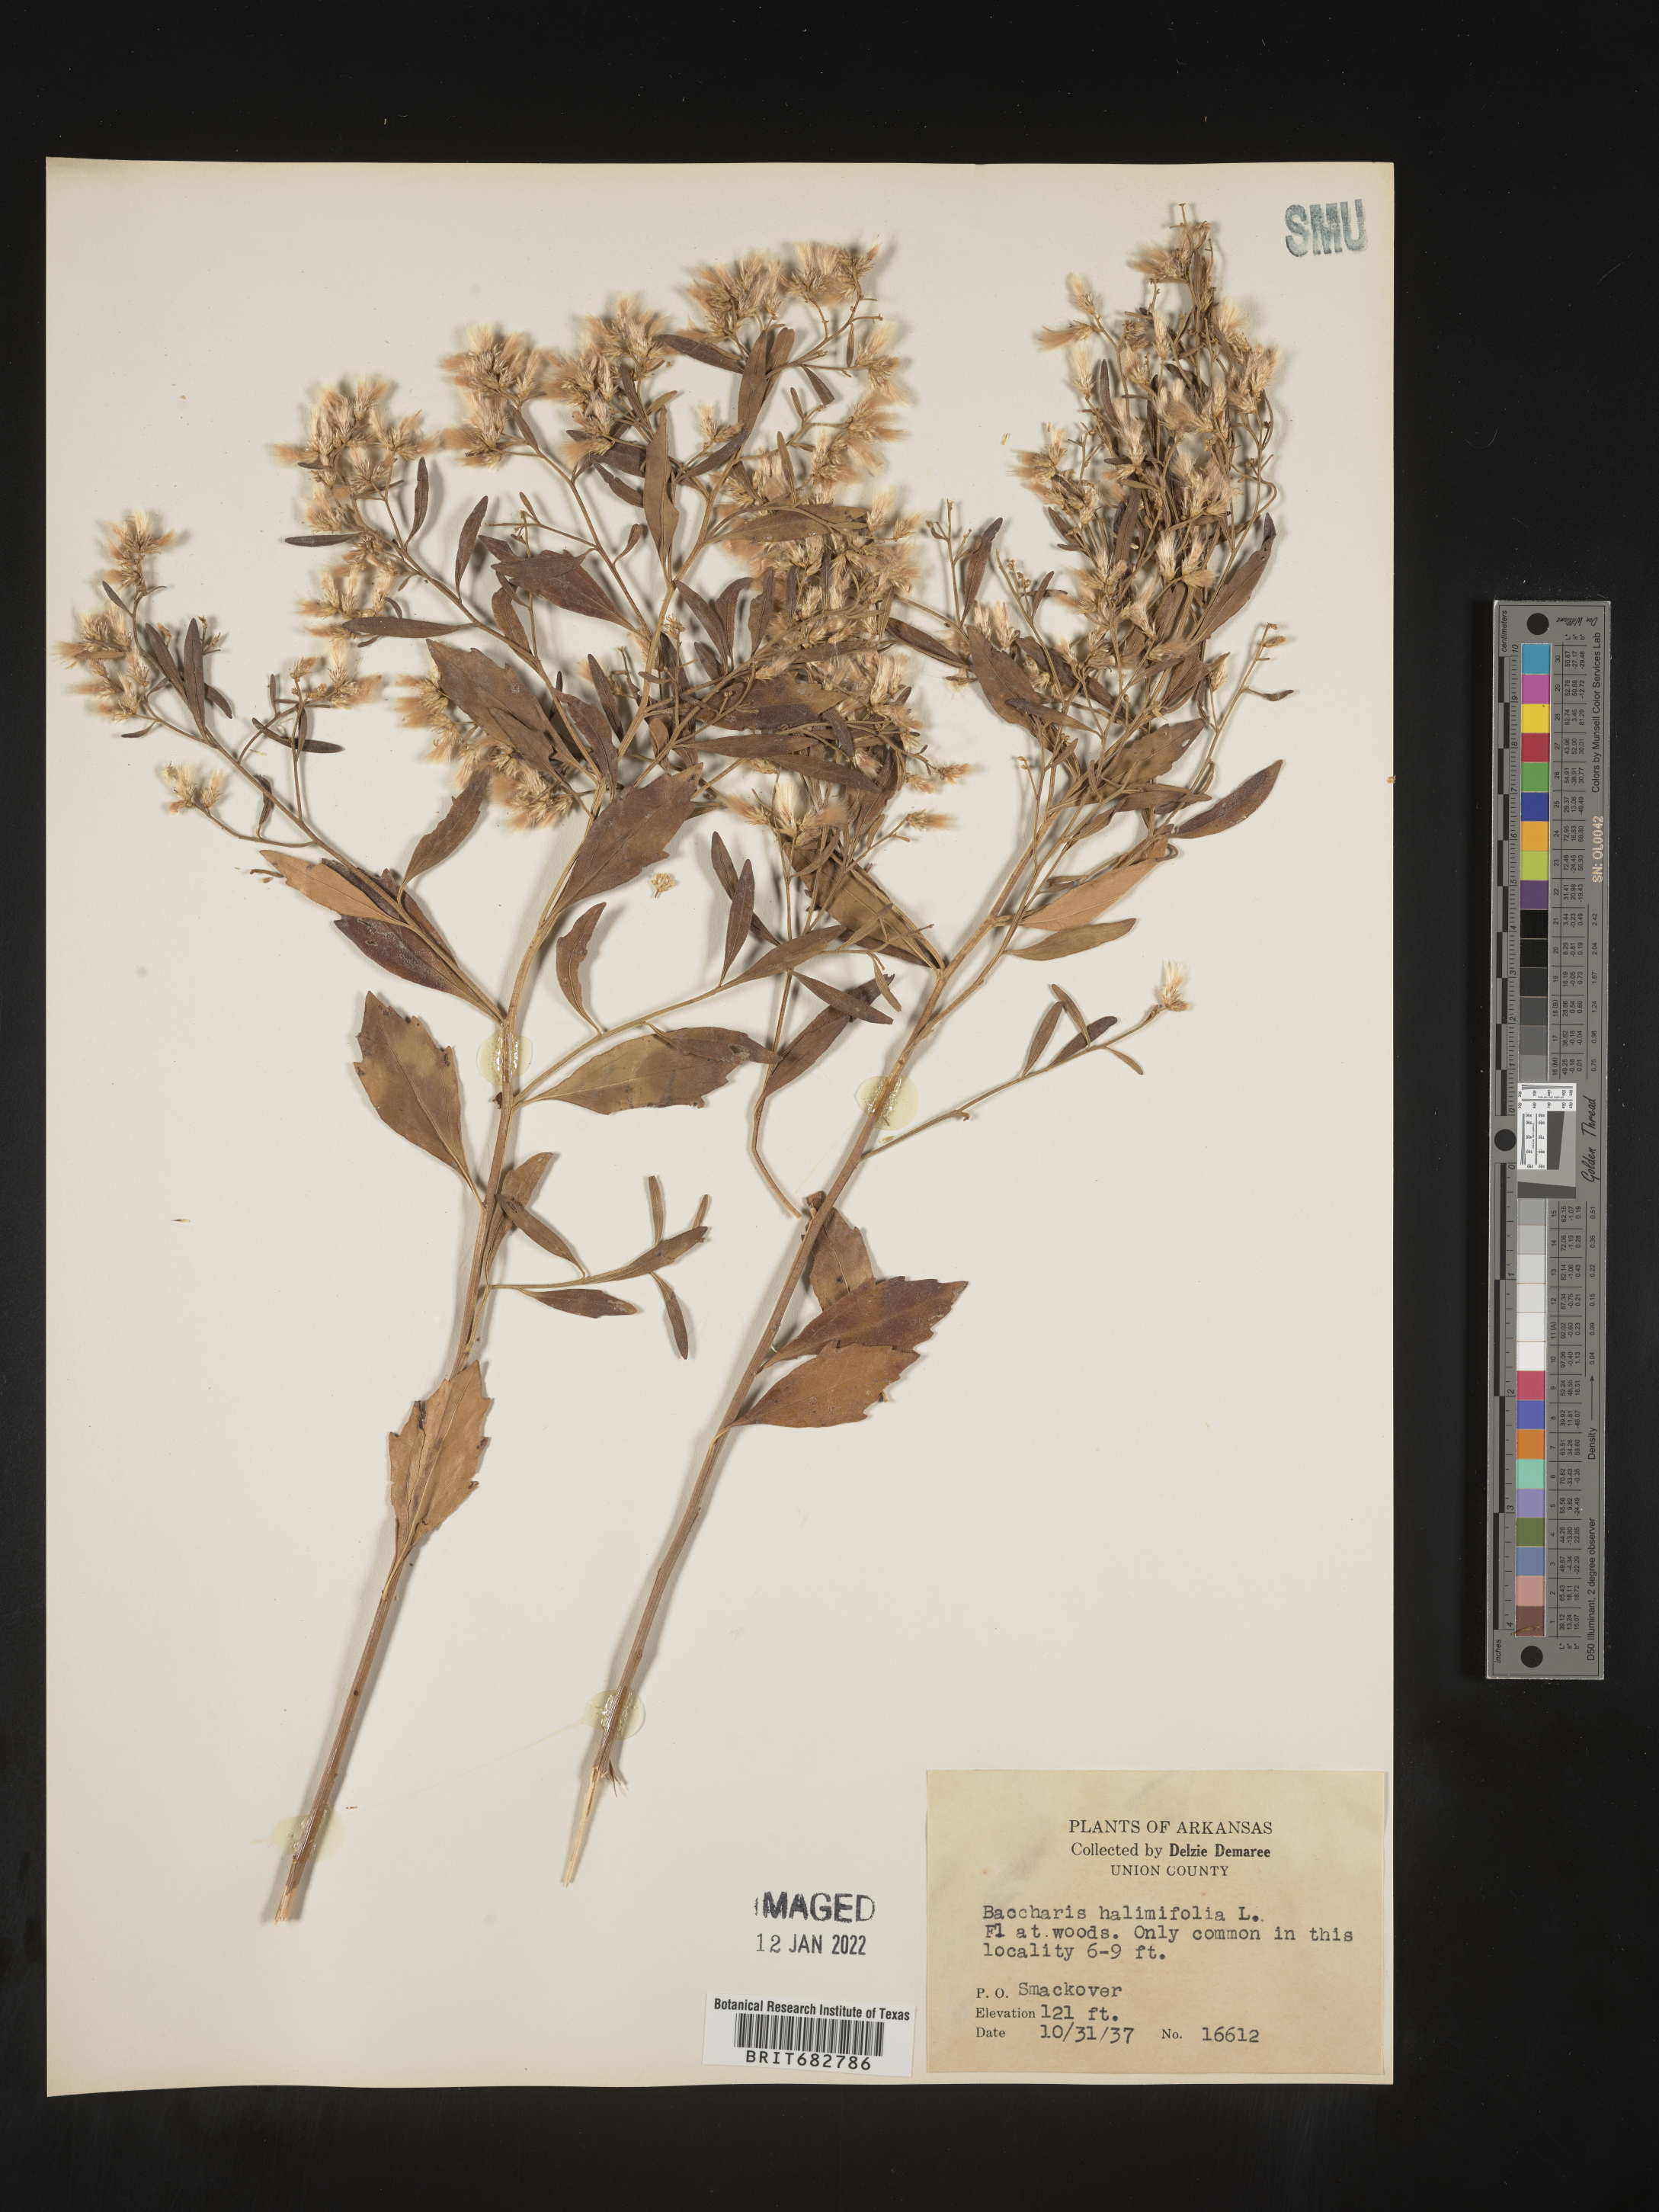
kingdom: Plantae
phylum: Tracheophyta
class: Magnoliopsida
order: Asterales
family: Asteraceae
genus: Nidorella
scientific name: Nidorella ivifolia
